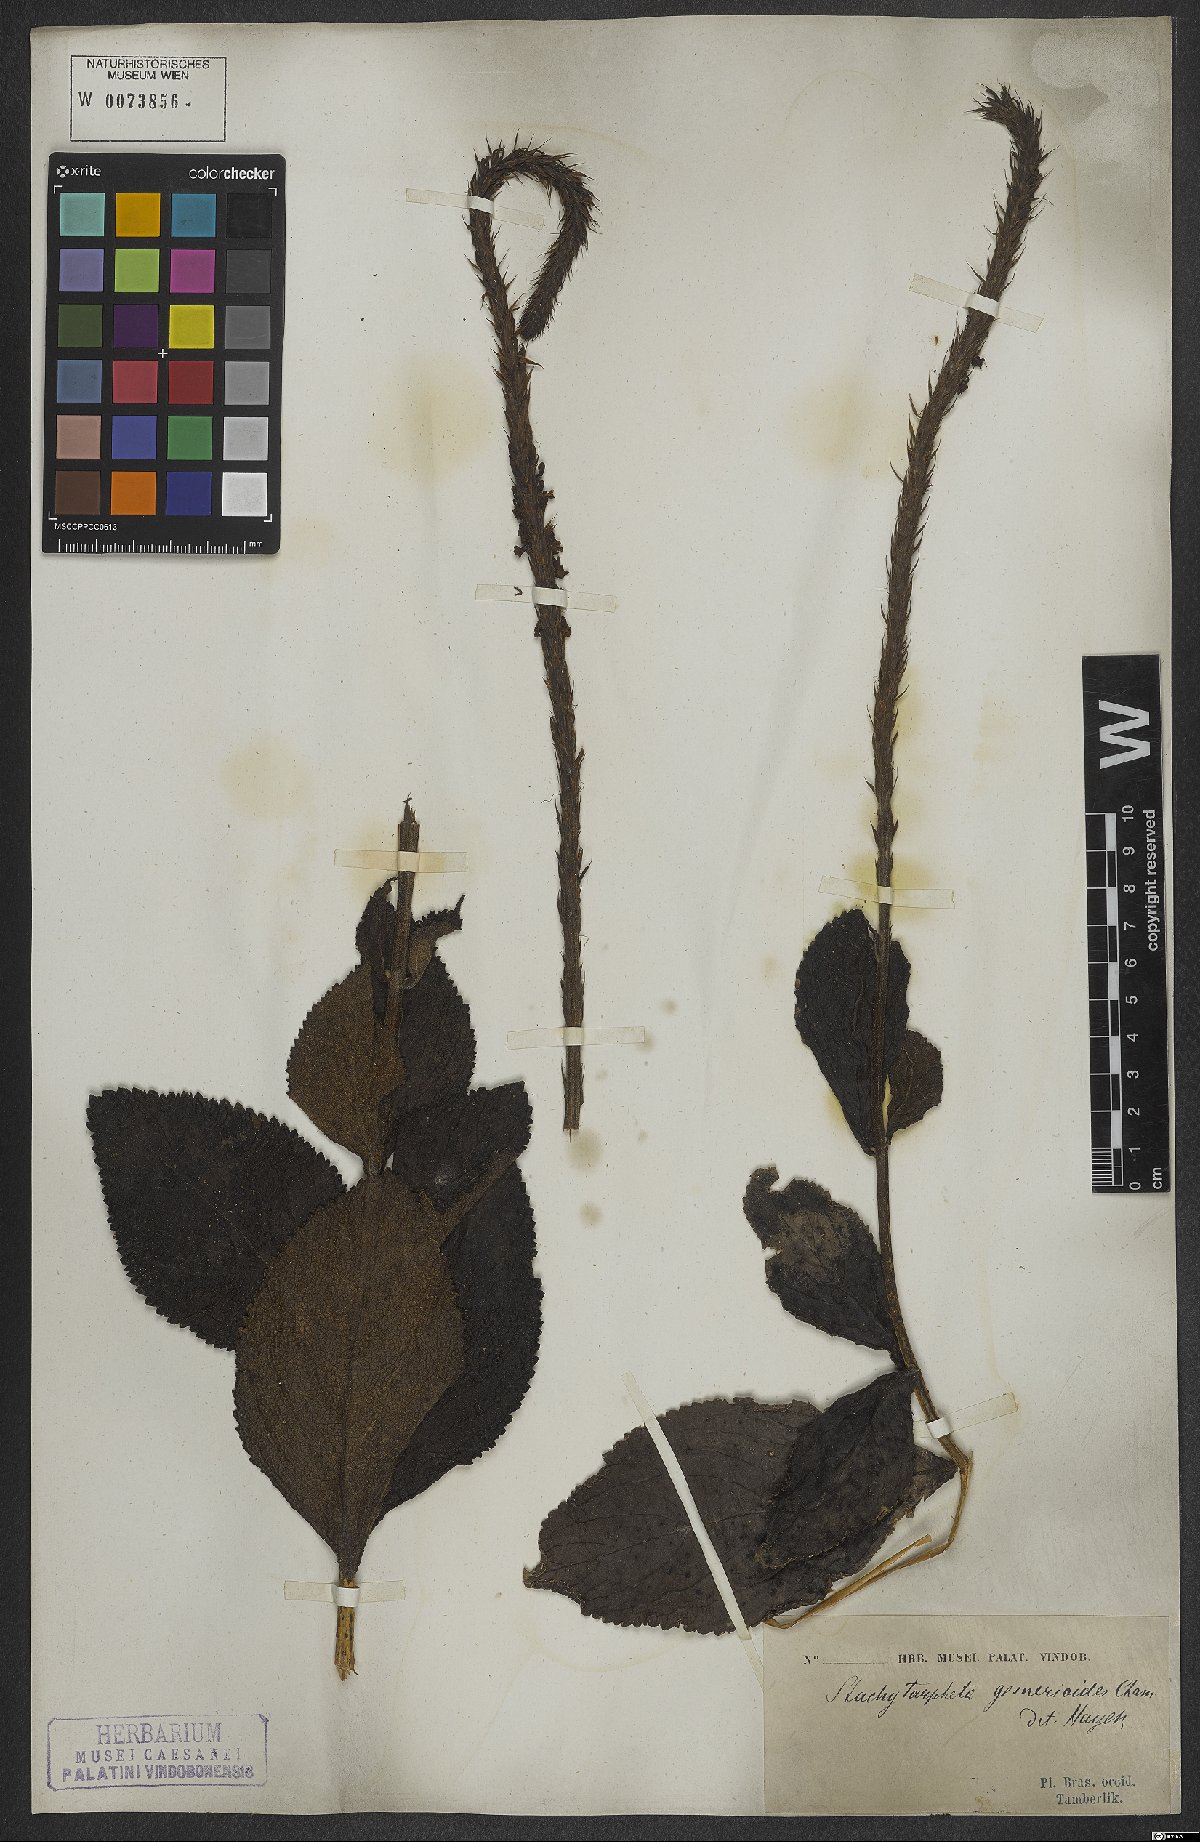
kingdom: Plantae
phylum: Tracheophyta
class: Magnoliopsida
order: Lamiales
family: Verbenaceae
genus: Stachytarpheta
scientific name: Stachytarpheta gesnerioides
